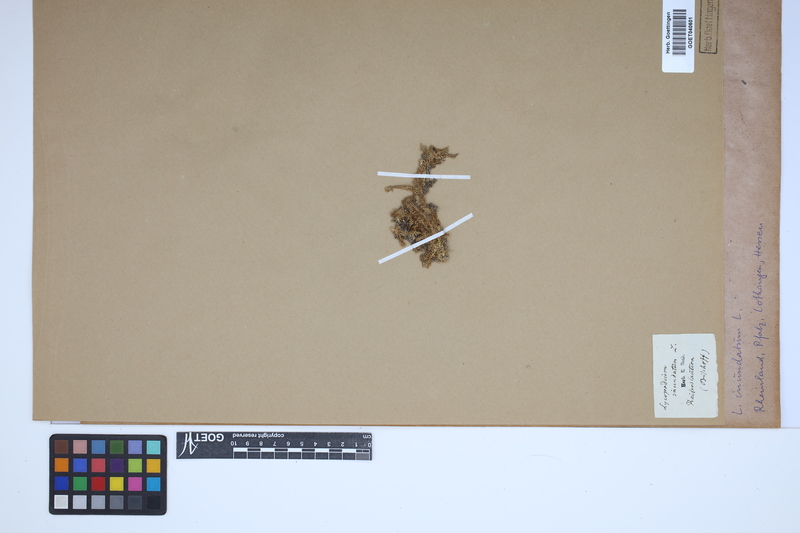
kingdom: Plantae
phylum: Tracheophyta
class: Lycopodiopsida
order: Lycopodiales
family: Lycopodiaceae
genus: Lycopodiella
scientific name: Lycopodiella inundata
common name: Marsh clubmoss
